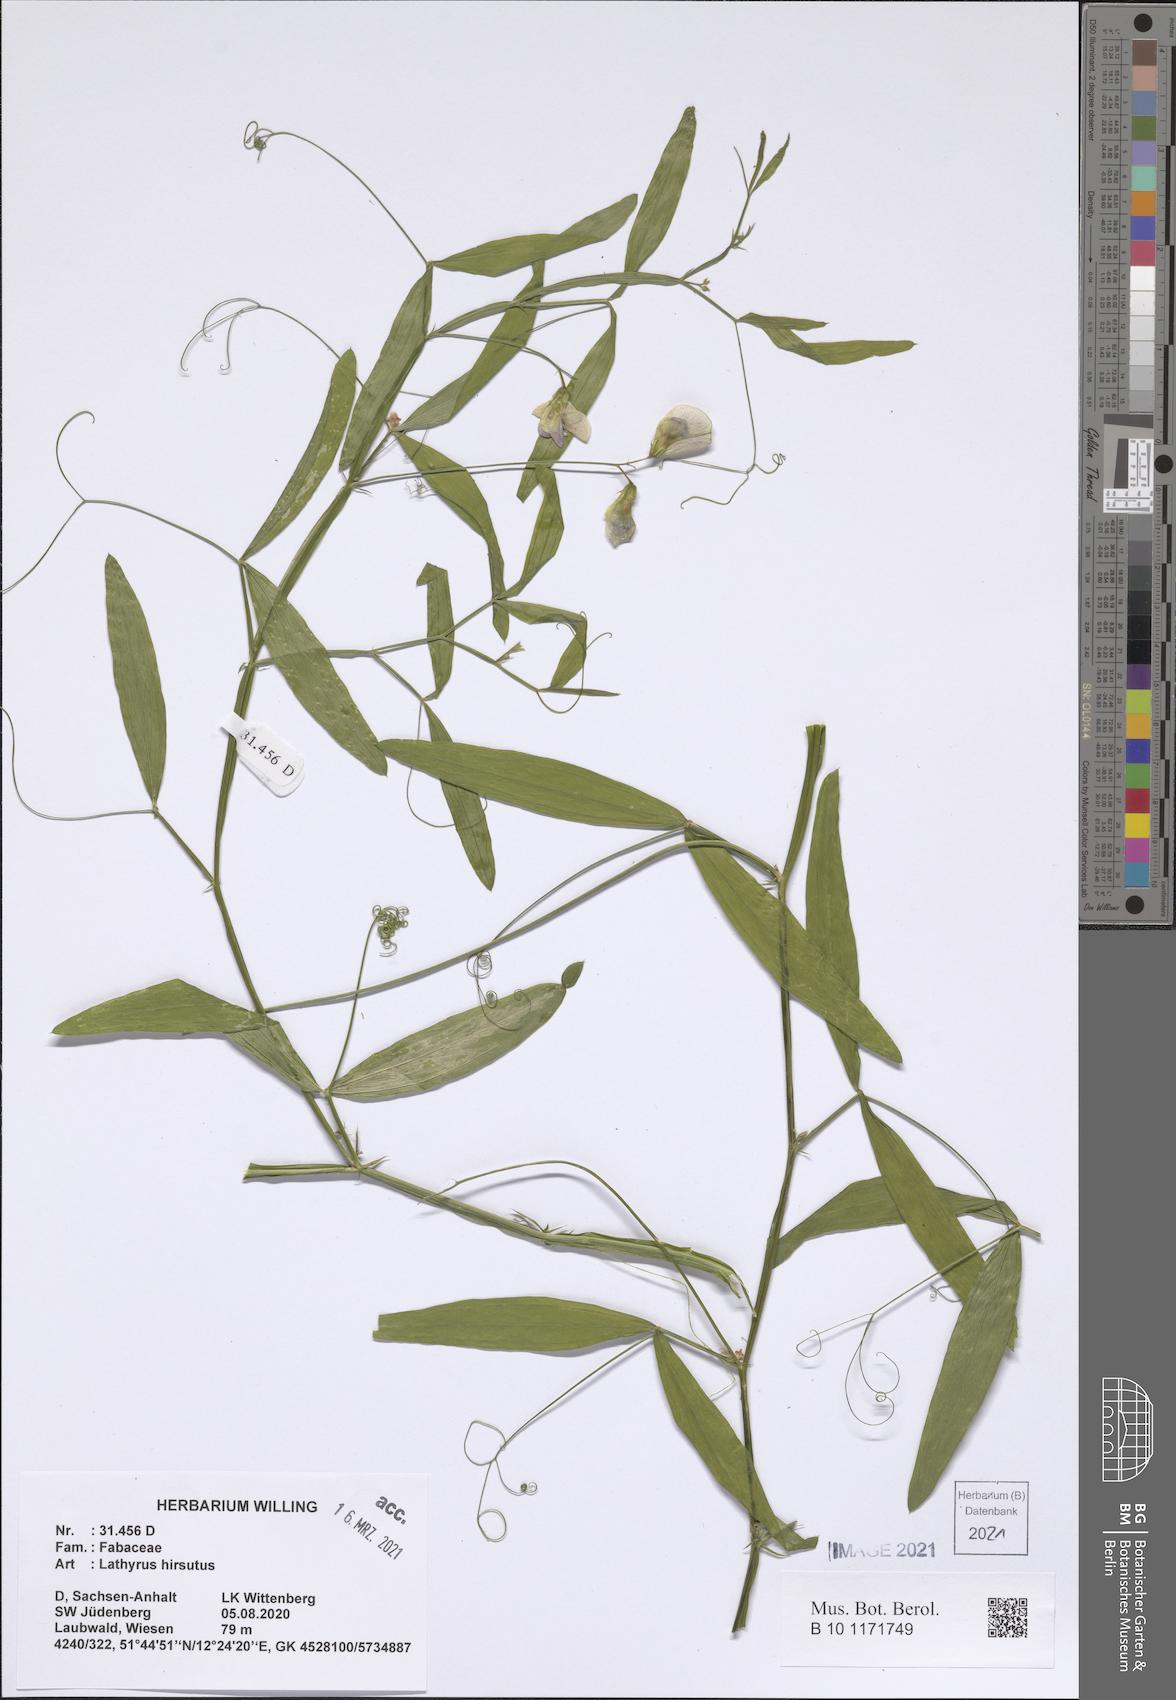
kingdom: Plantae
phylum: Tracheophyta
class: Magnoliopsida
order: Fabales
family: Fabaceae
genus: Lathyrus
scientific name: Lathyrus hirsutus
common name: Hairy vetchling
